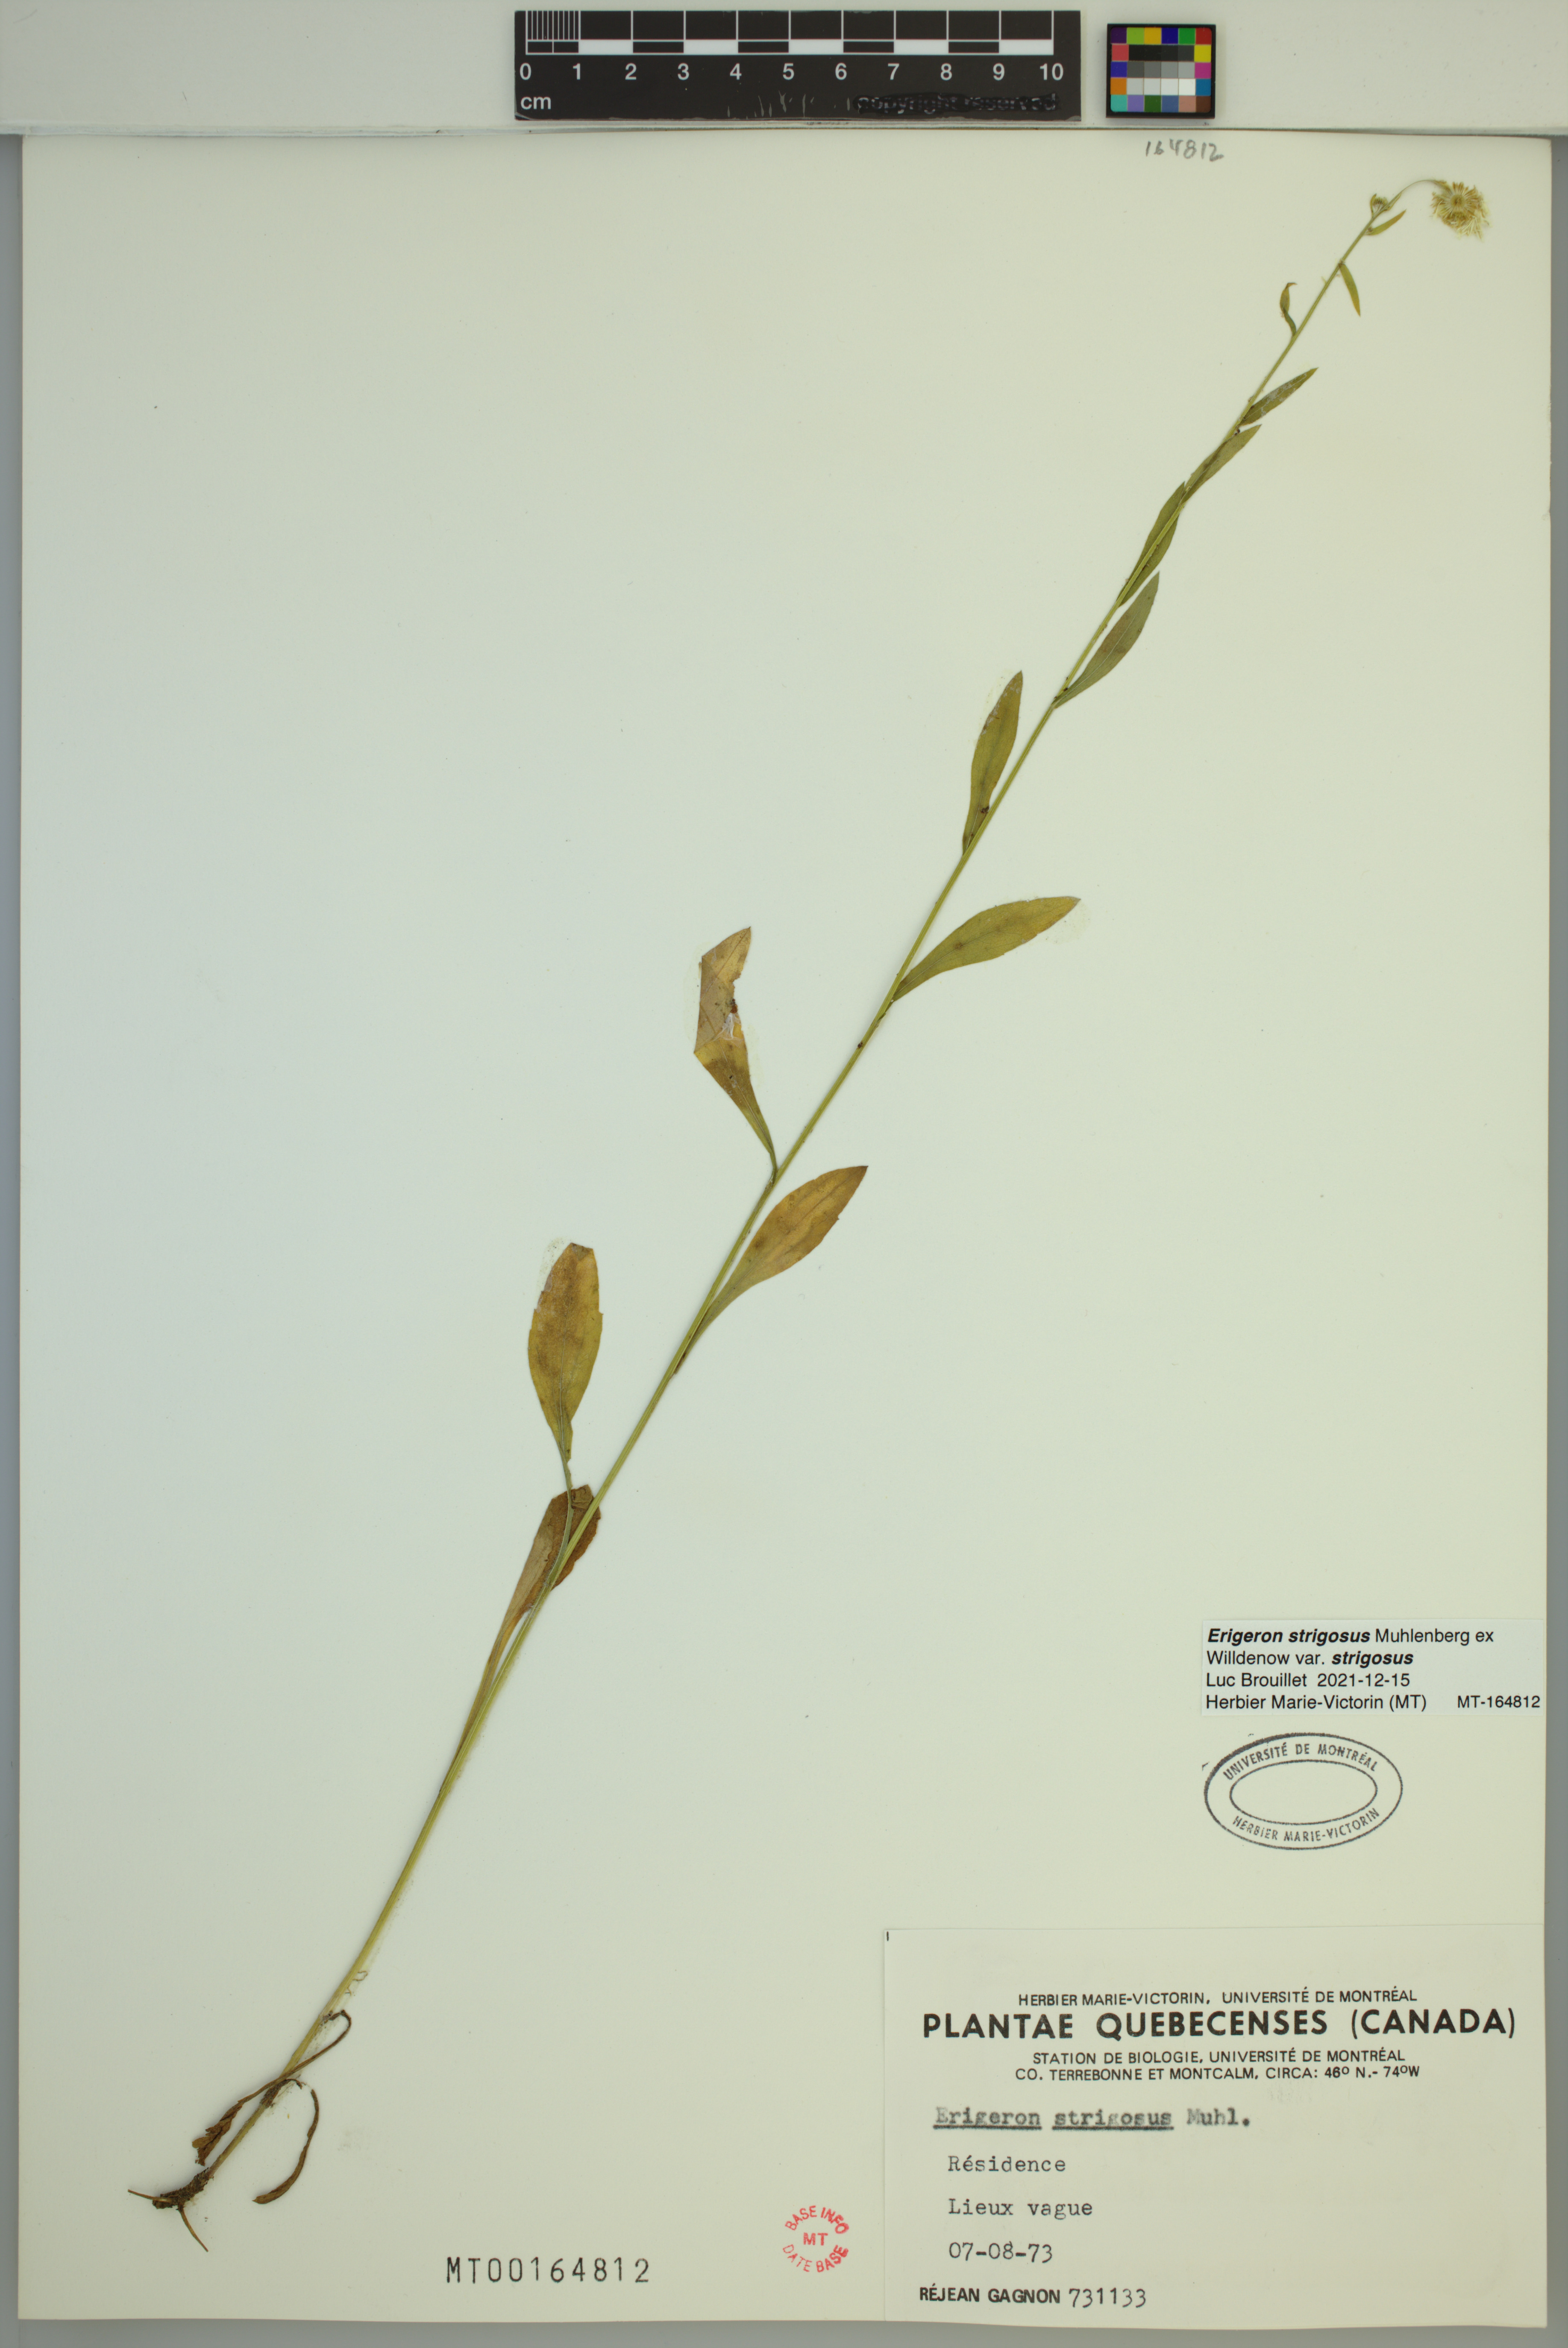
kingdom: Plantae
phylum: Tracheophyta
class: Magnoliopsida
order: Asterales
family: Asteraceae
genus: Erigeron
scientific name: Erigeron strigosus
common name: Common eastern fleabane
